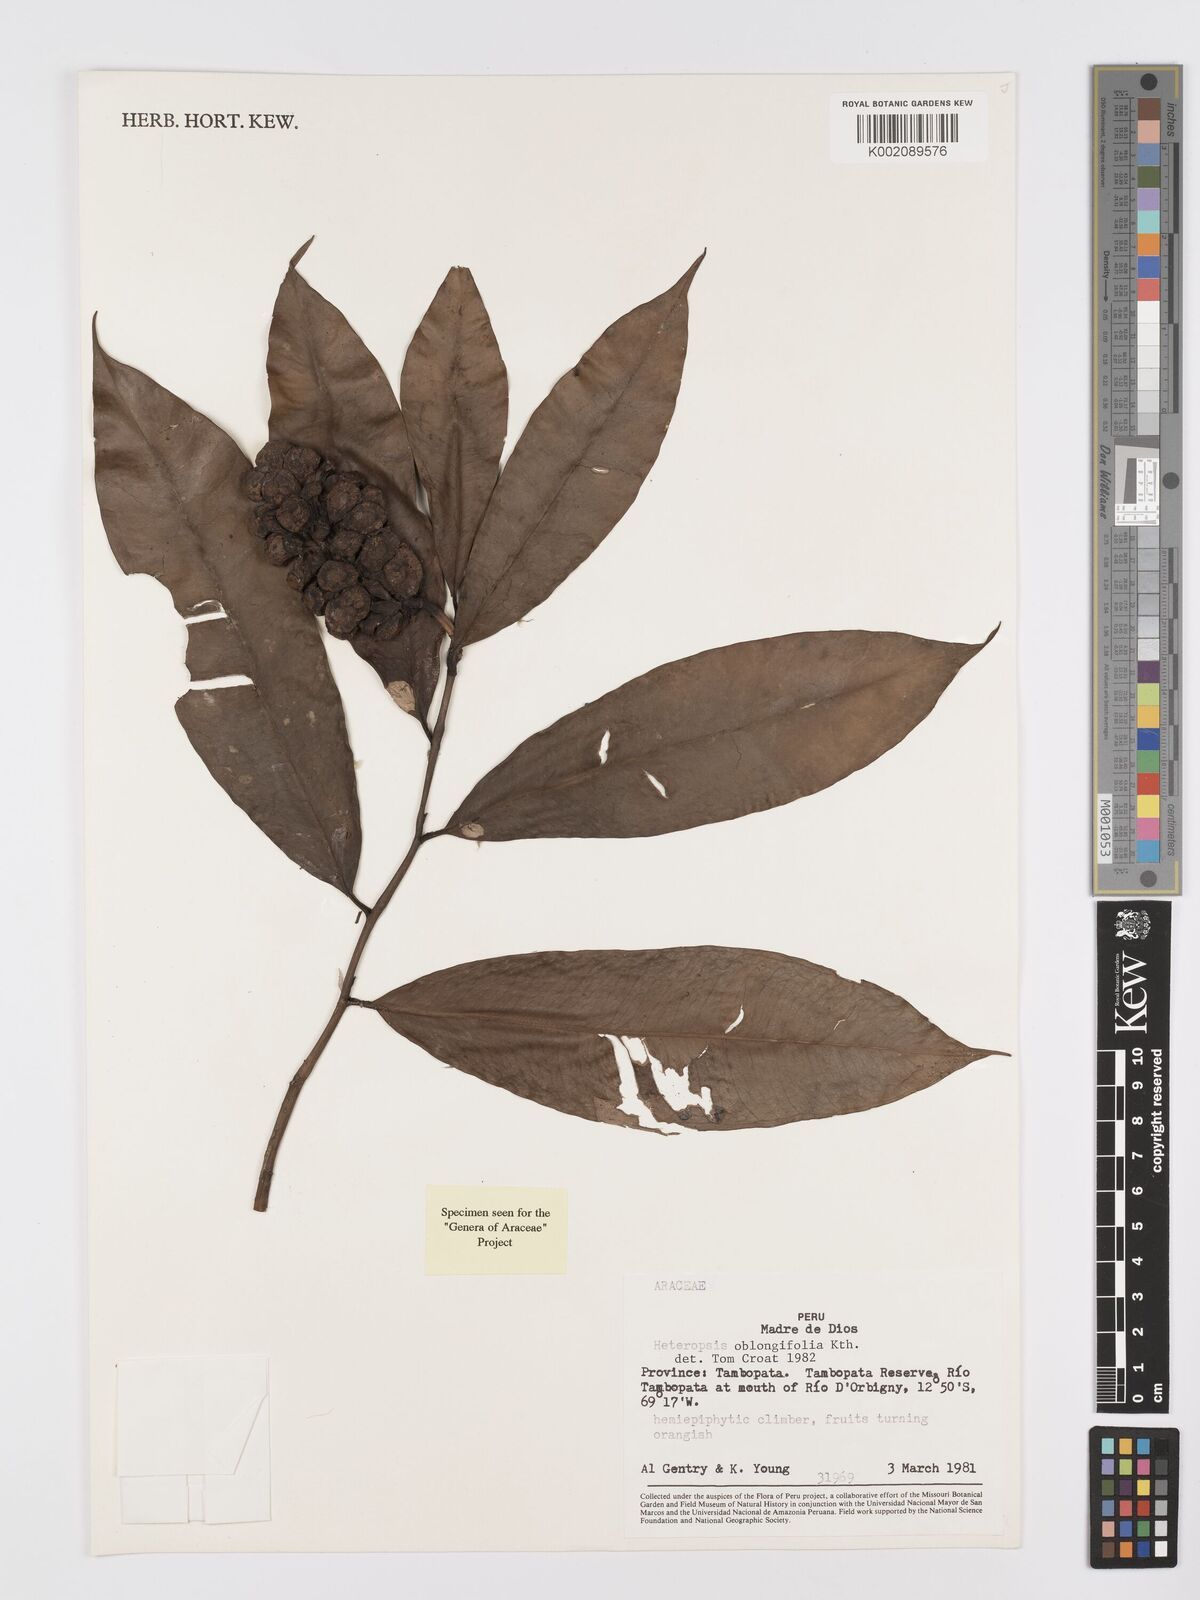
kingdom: Plantae
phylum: Tracheophyta
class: Liliopsida
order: Alismatales
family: Araceae
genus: Heteropsis
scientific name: Heteropsis oblongifolia
